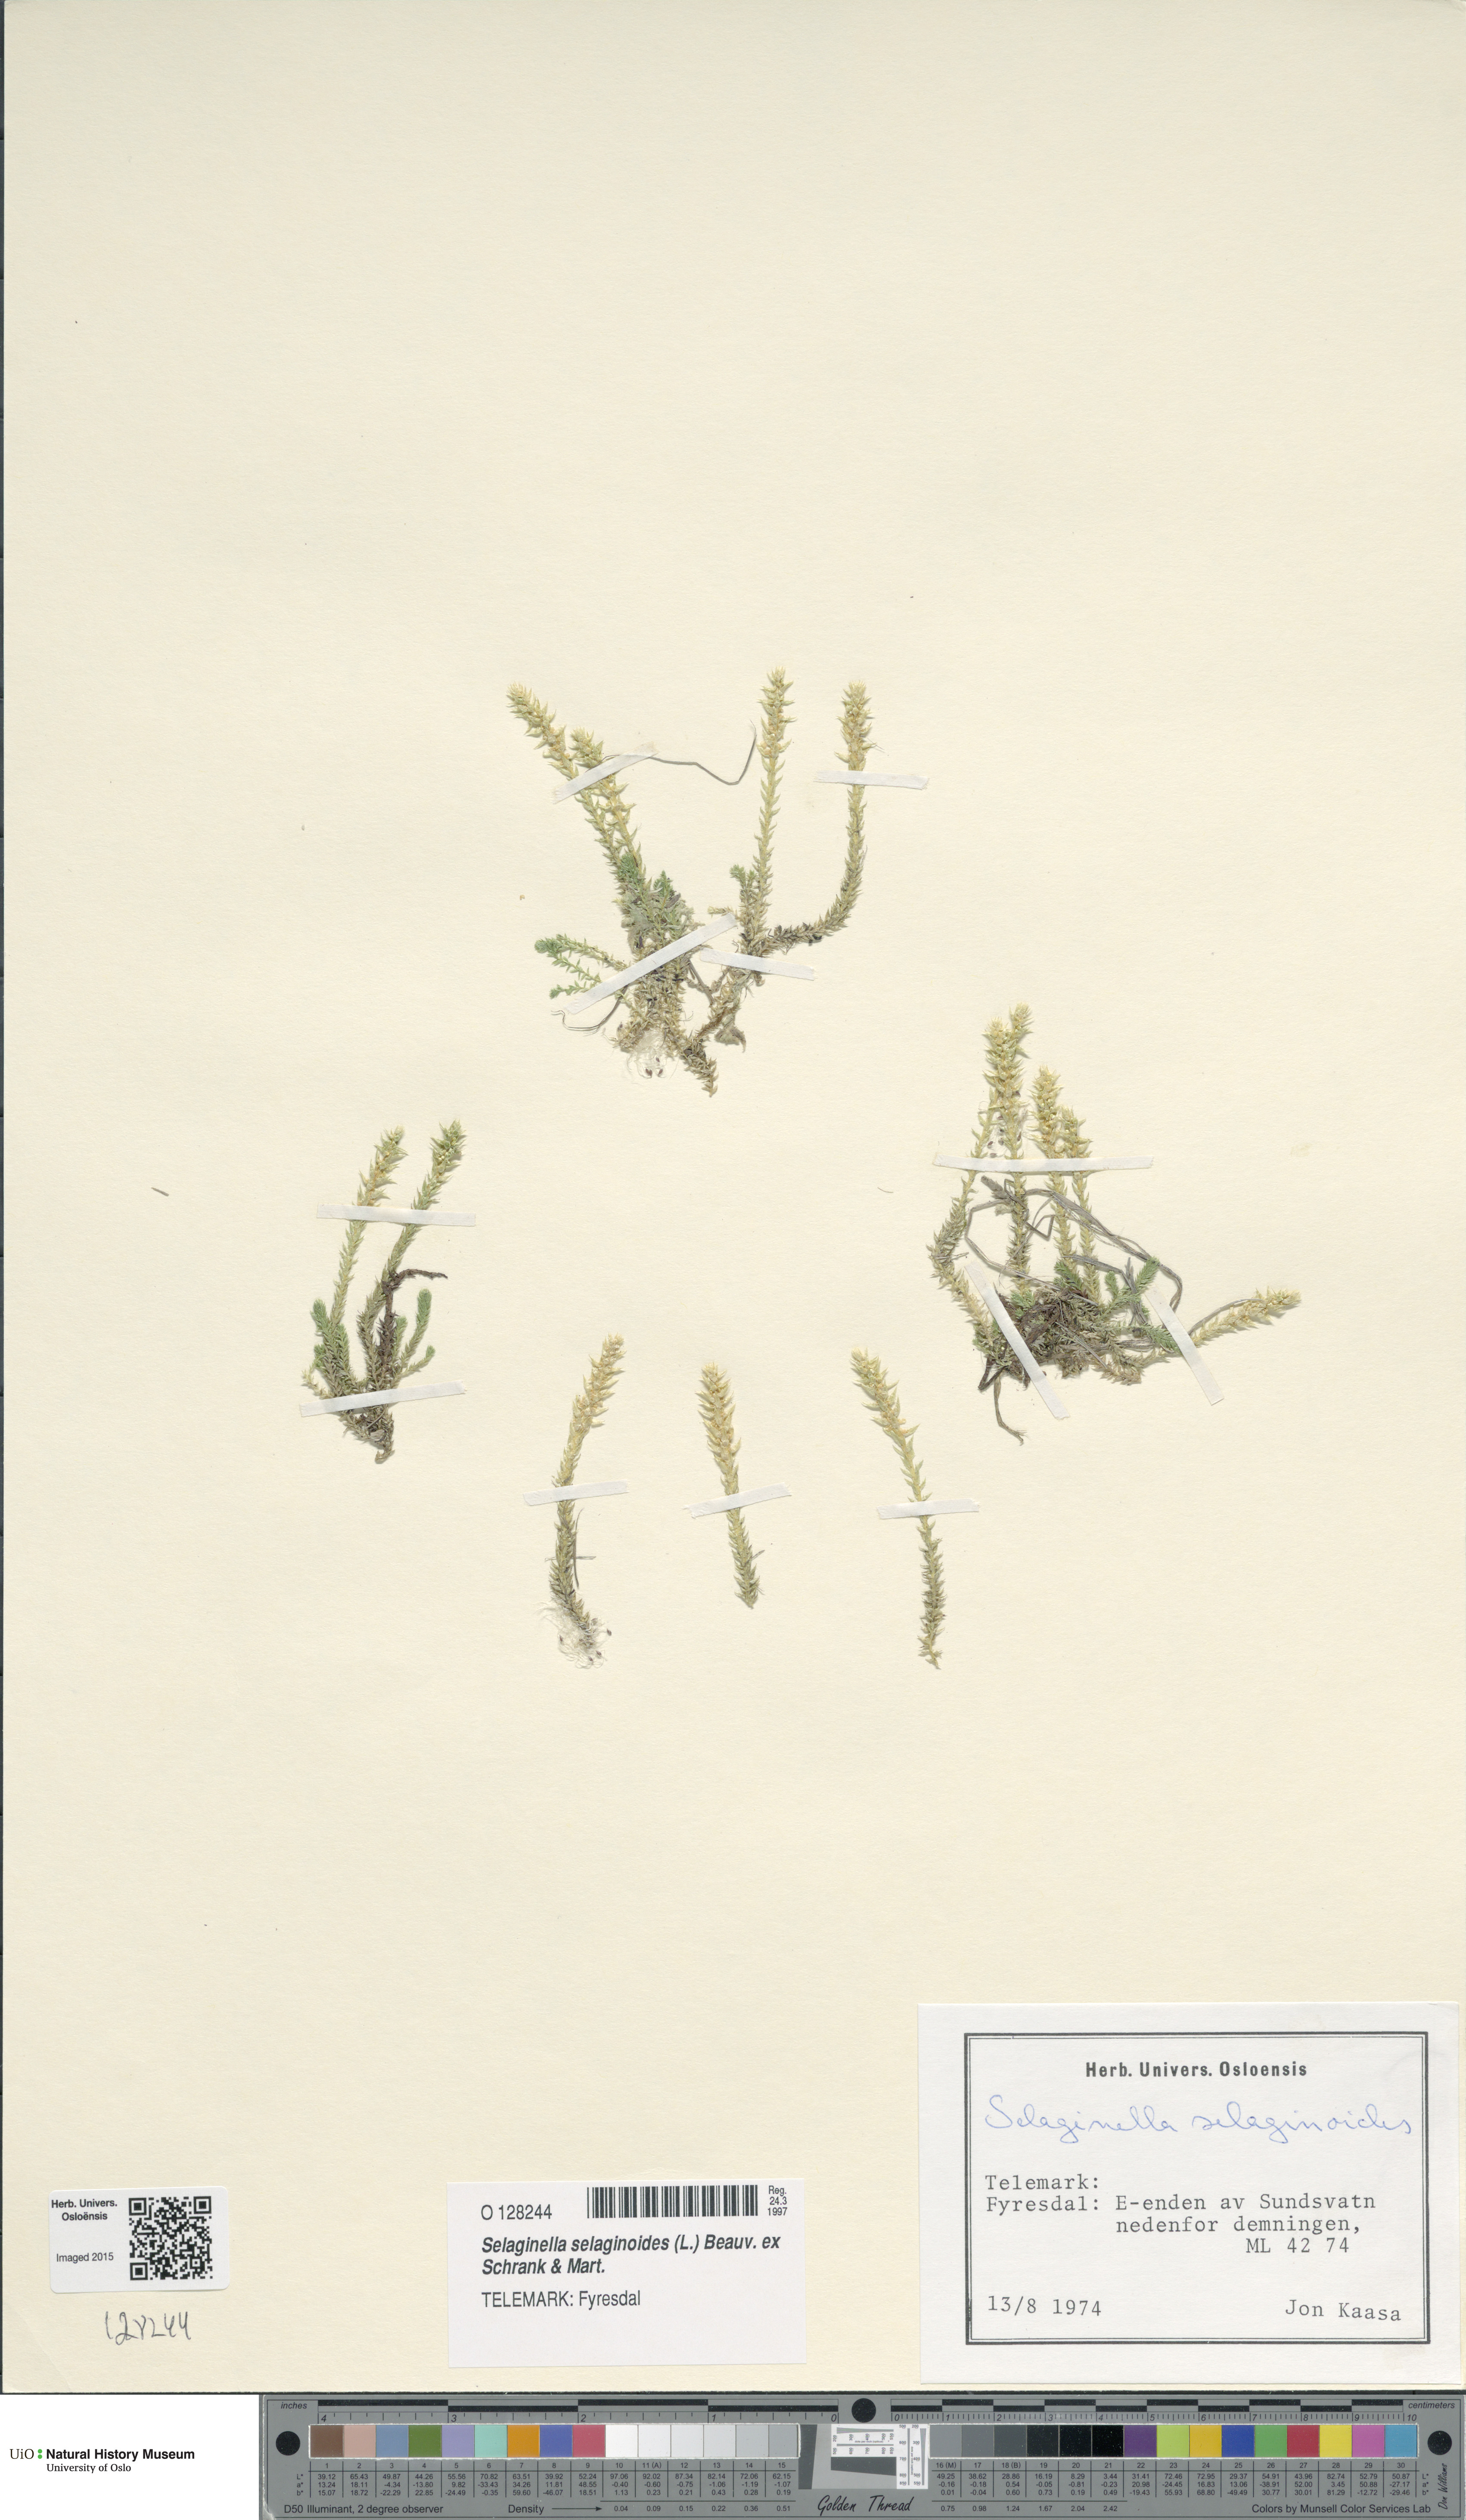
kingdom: Plantae
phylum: Tracheophyta
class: Lycopodiopsida
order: Selaginellales
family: Selaginellaceae
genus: Selaginella
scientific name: Selaginella selaginoides
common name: Prickly mountain-moss
